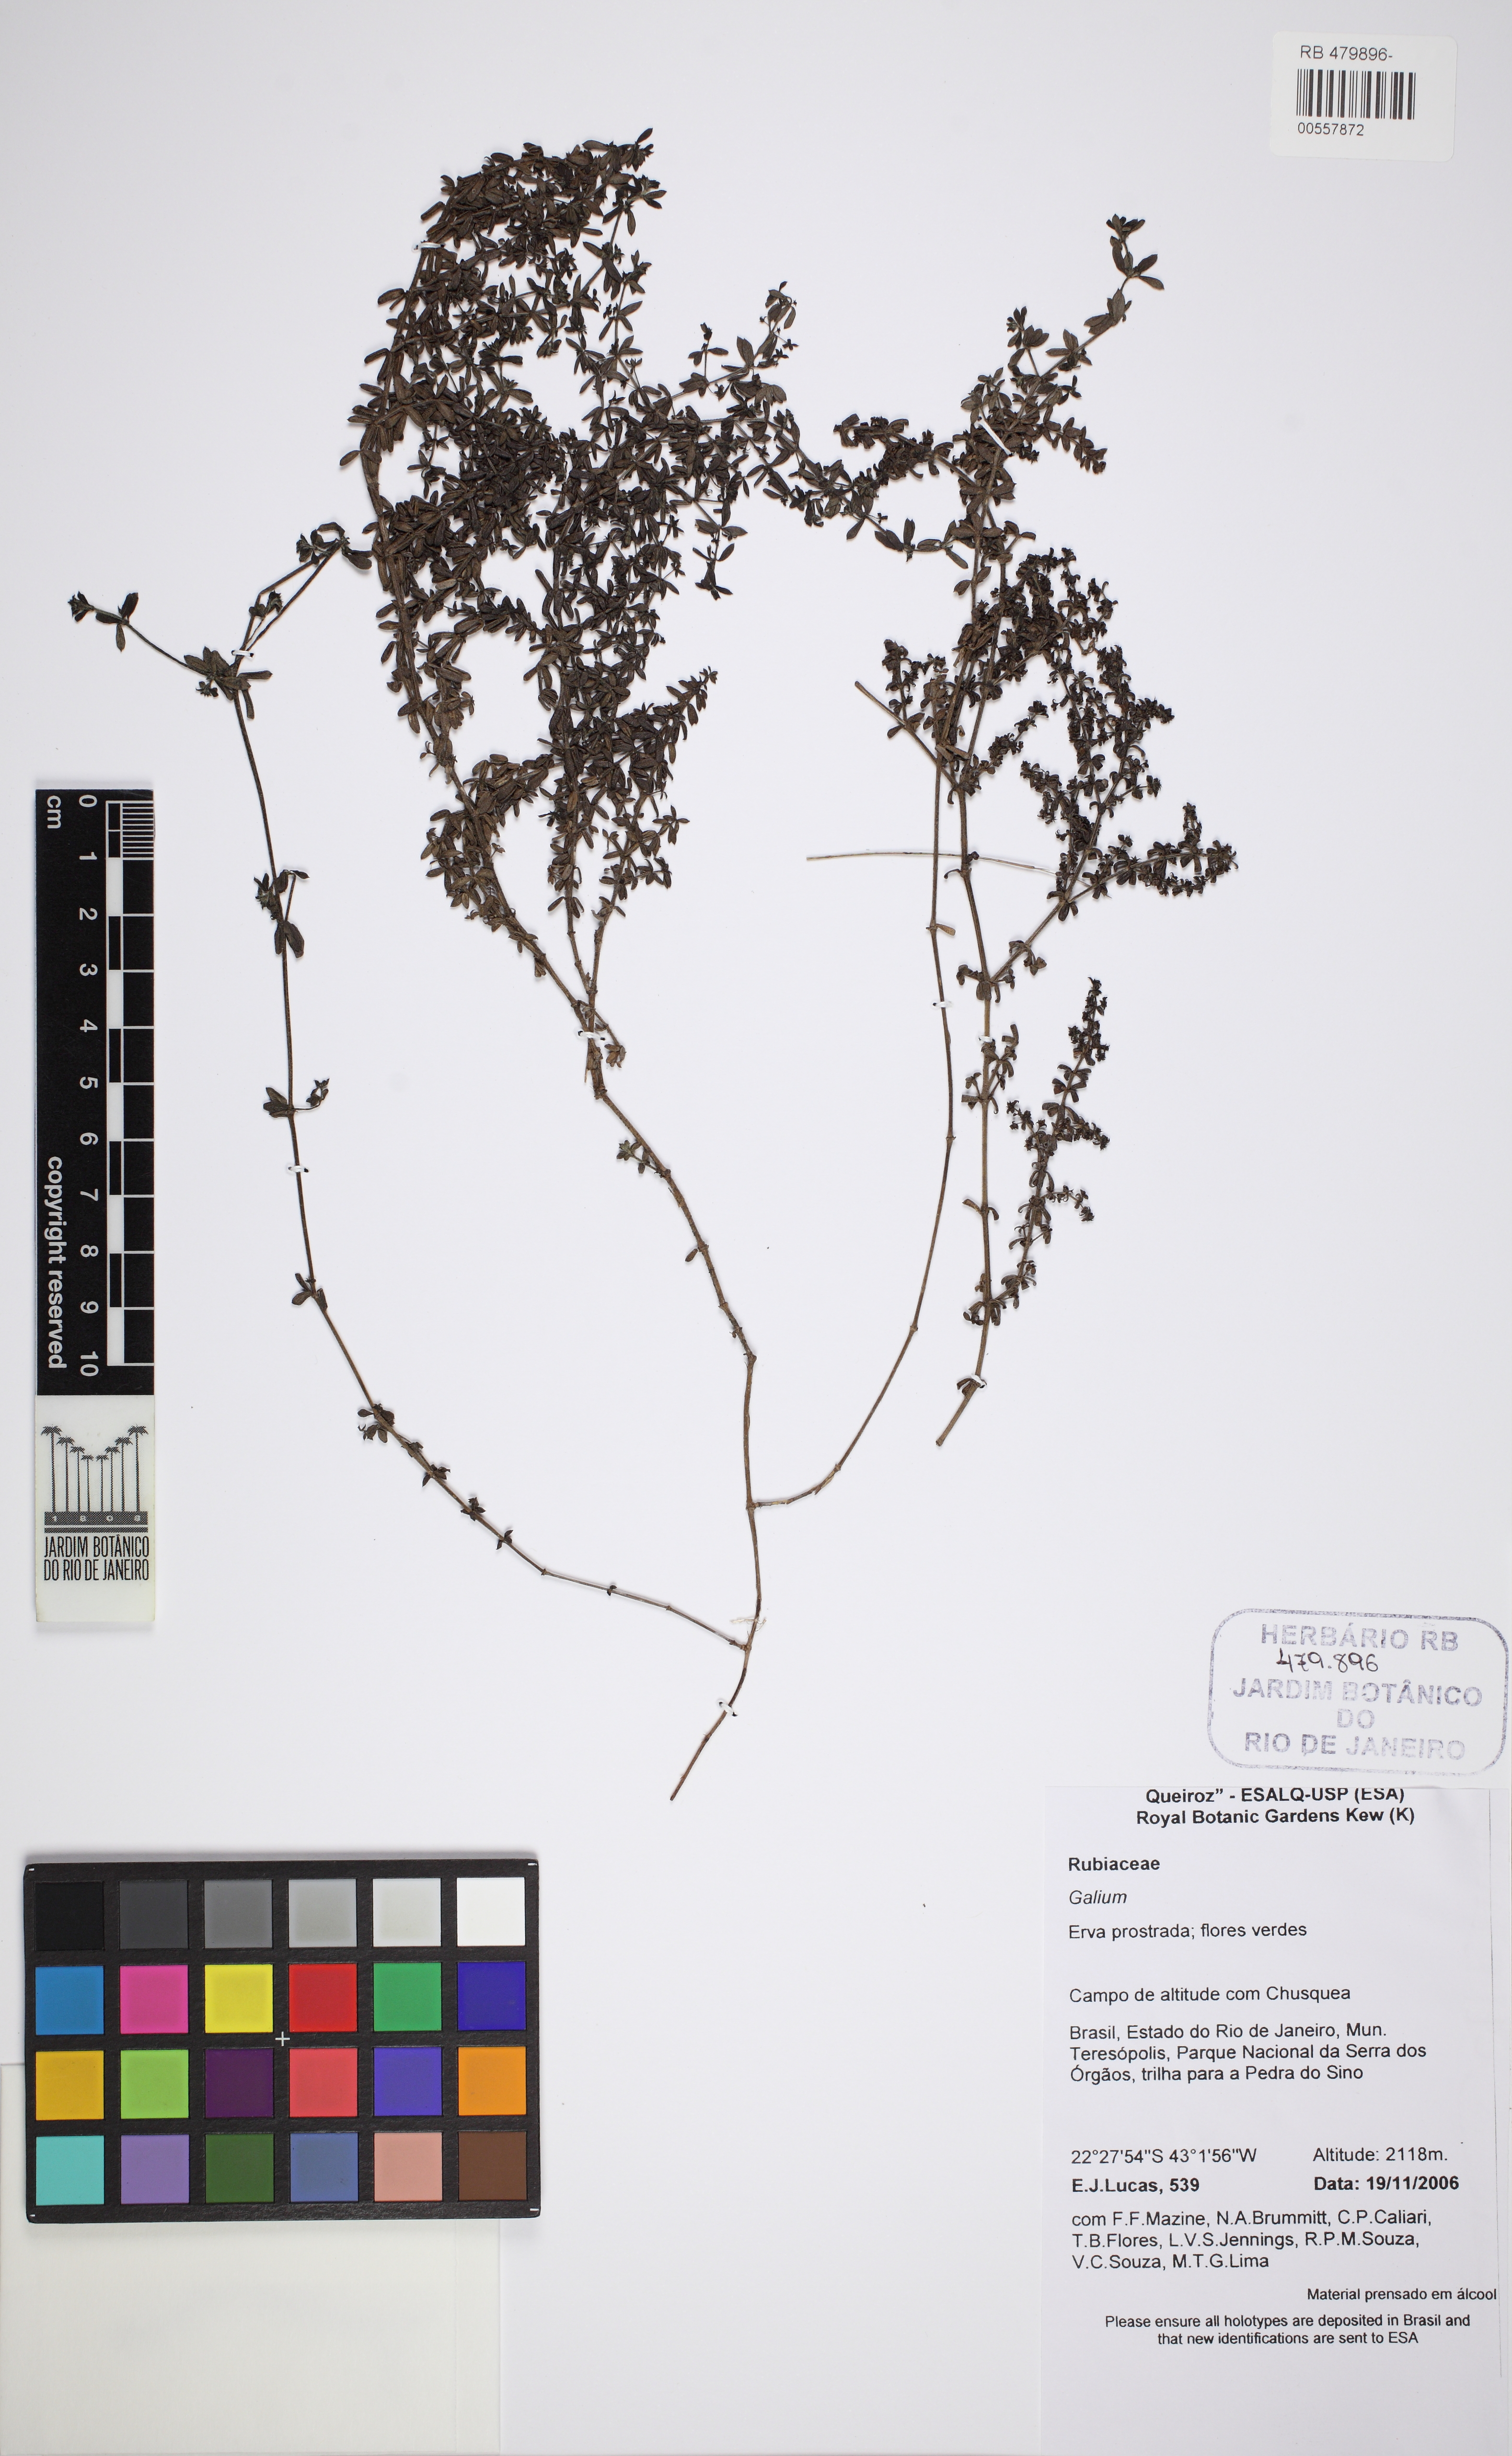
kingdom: Plantae
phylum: Tracheophyta
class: Magnoliopsida
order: Gentianales
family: Rubiaceae
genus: Galium
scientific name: Galium hypocarpium
